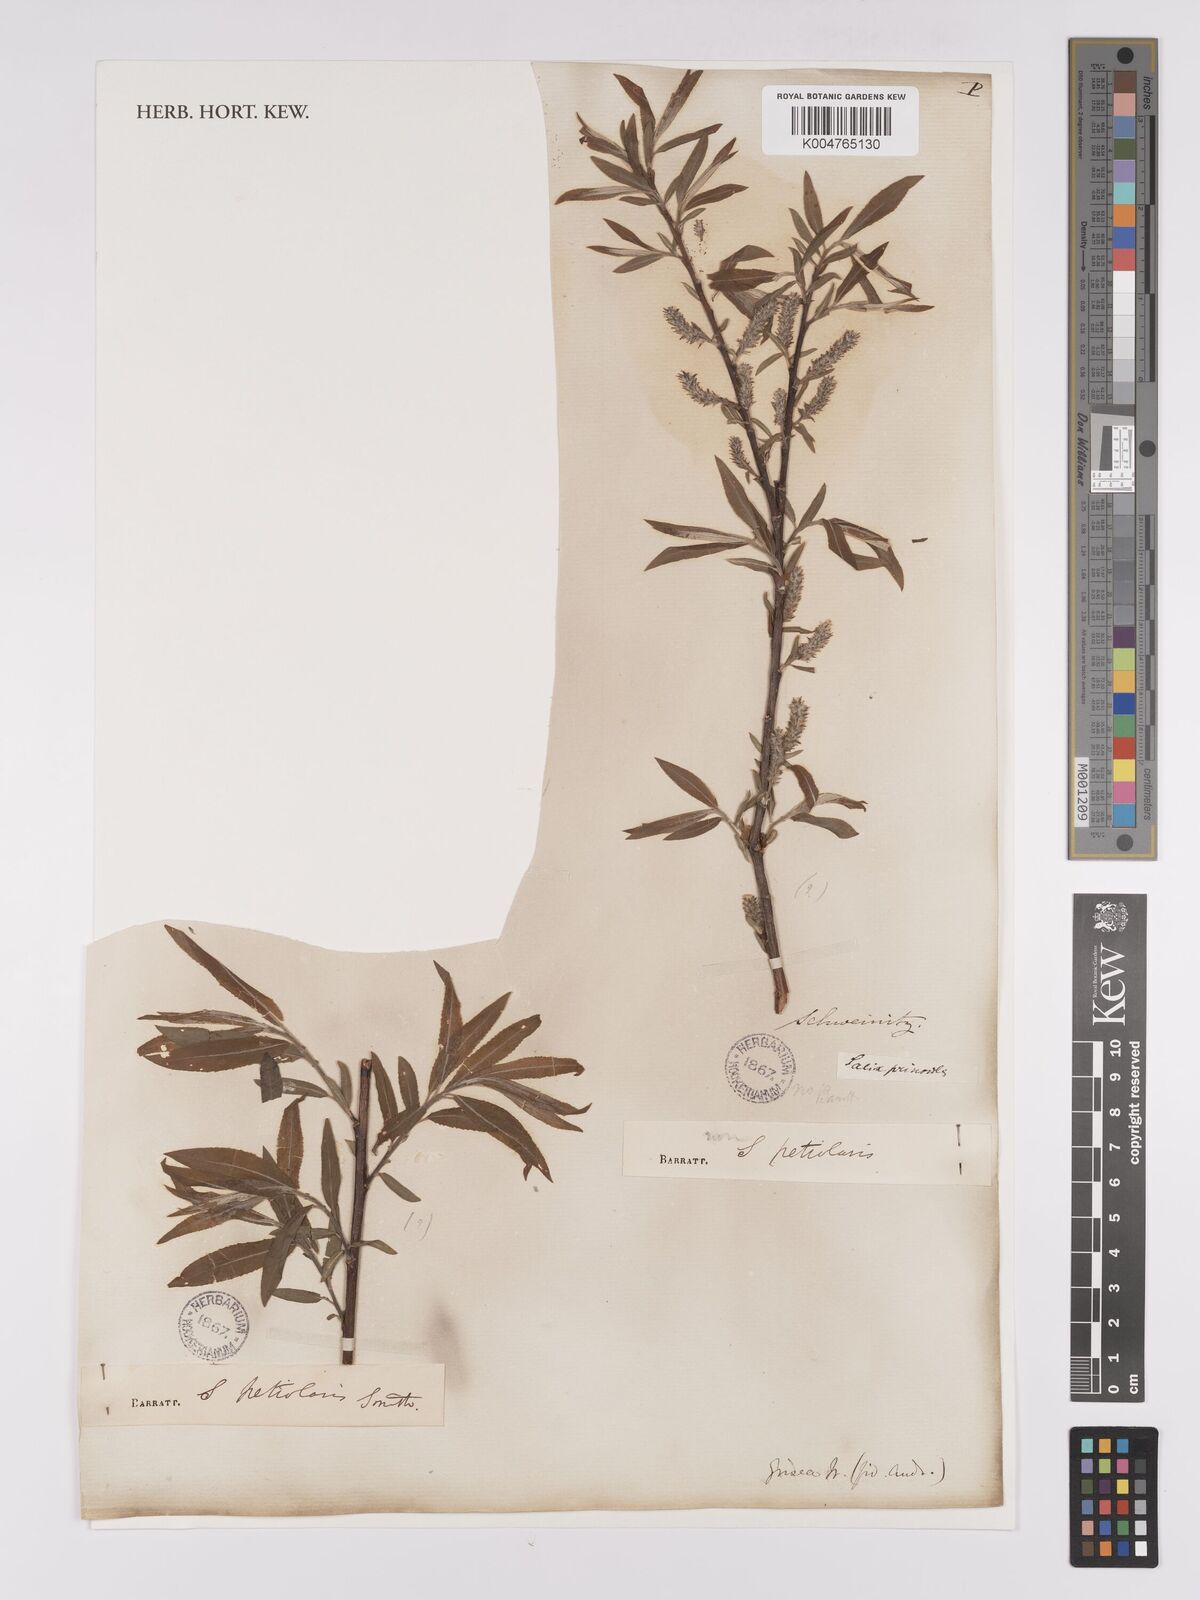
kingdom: Plantae
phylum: Tracheophyta
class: Magnoliopsida
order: Malpighiales
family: Salicaceae
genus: Salix
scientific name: Salix petiolaris
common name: Slender willow
